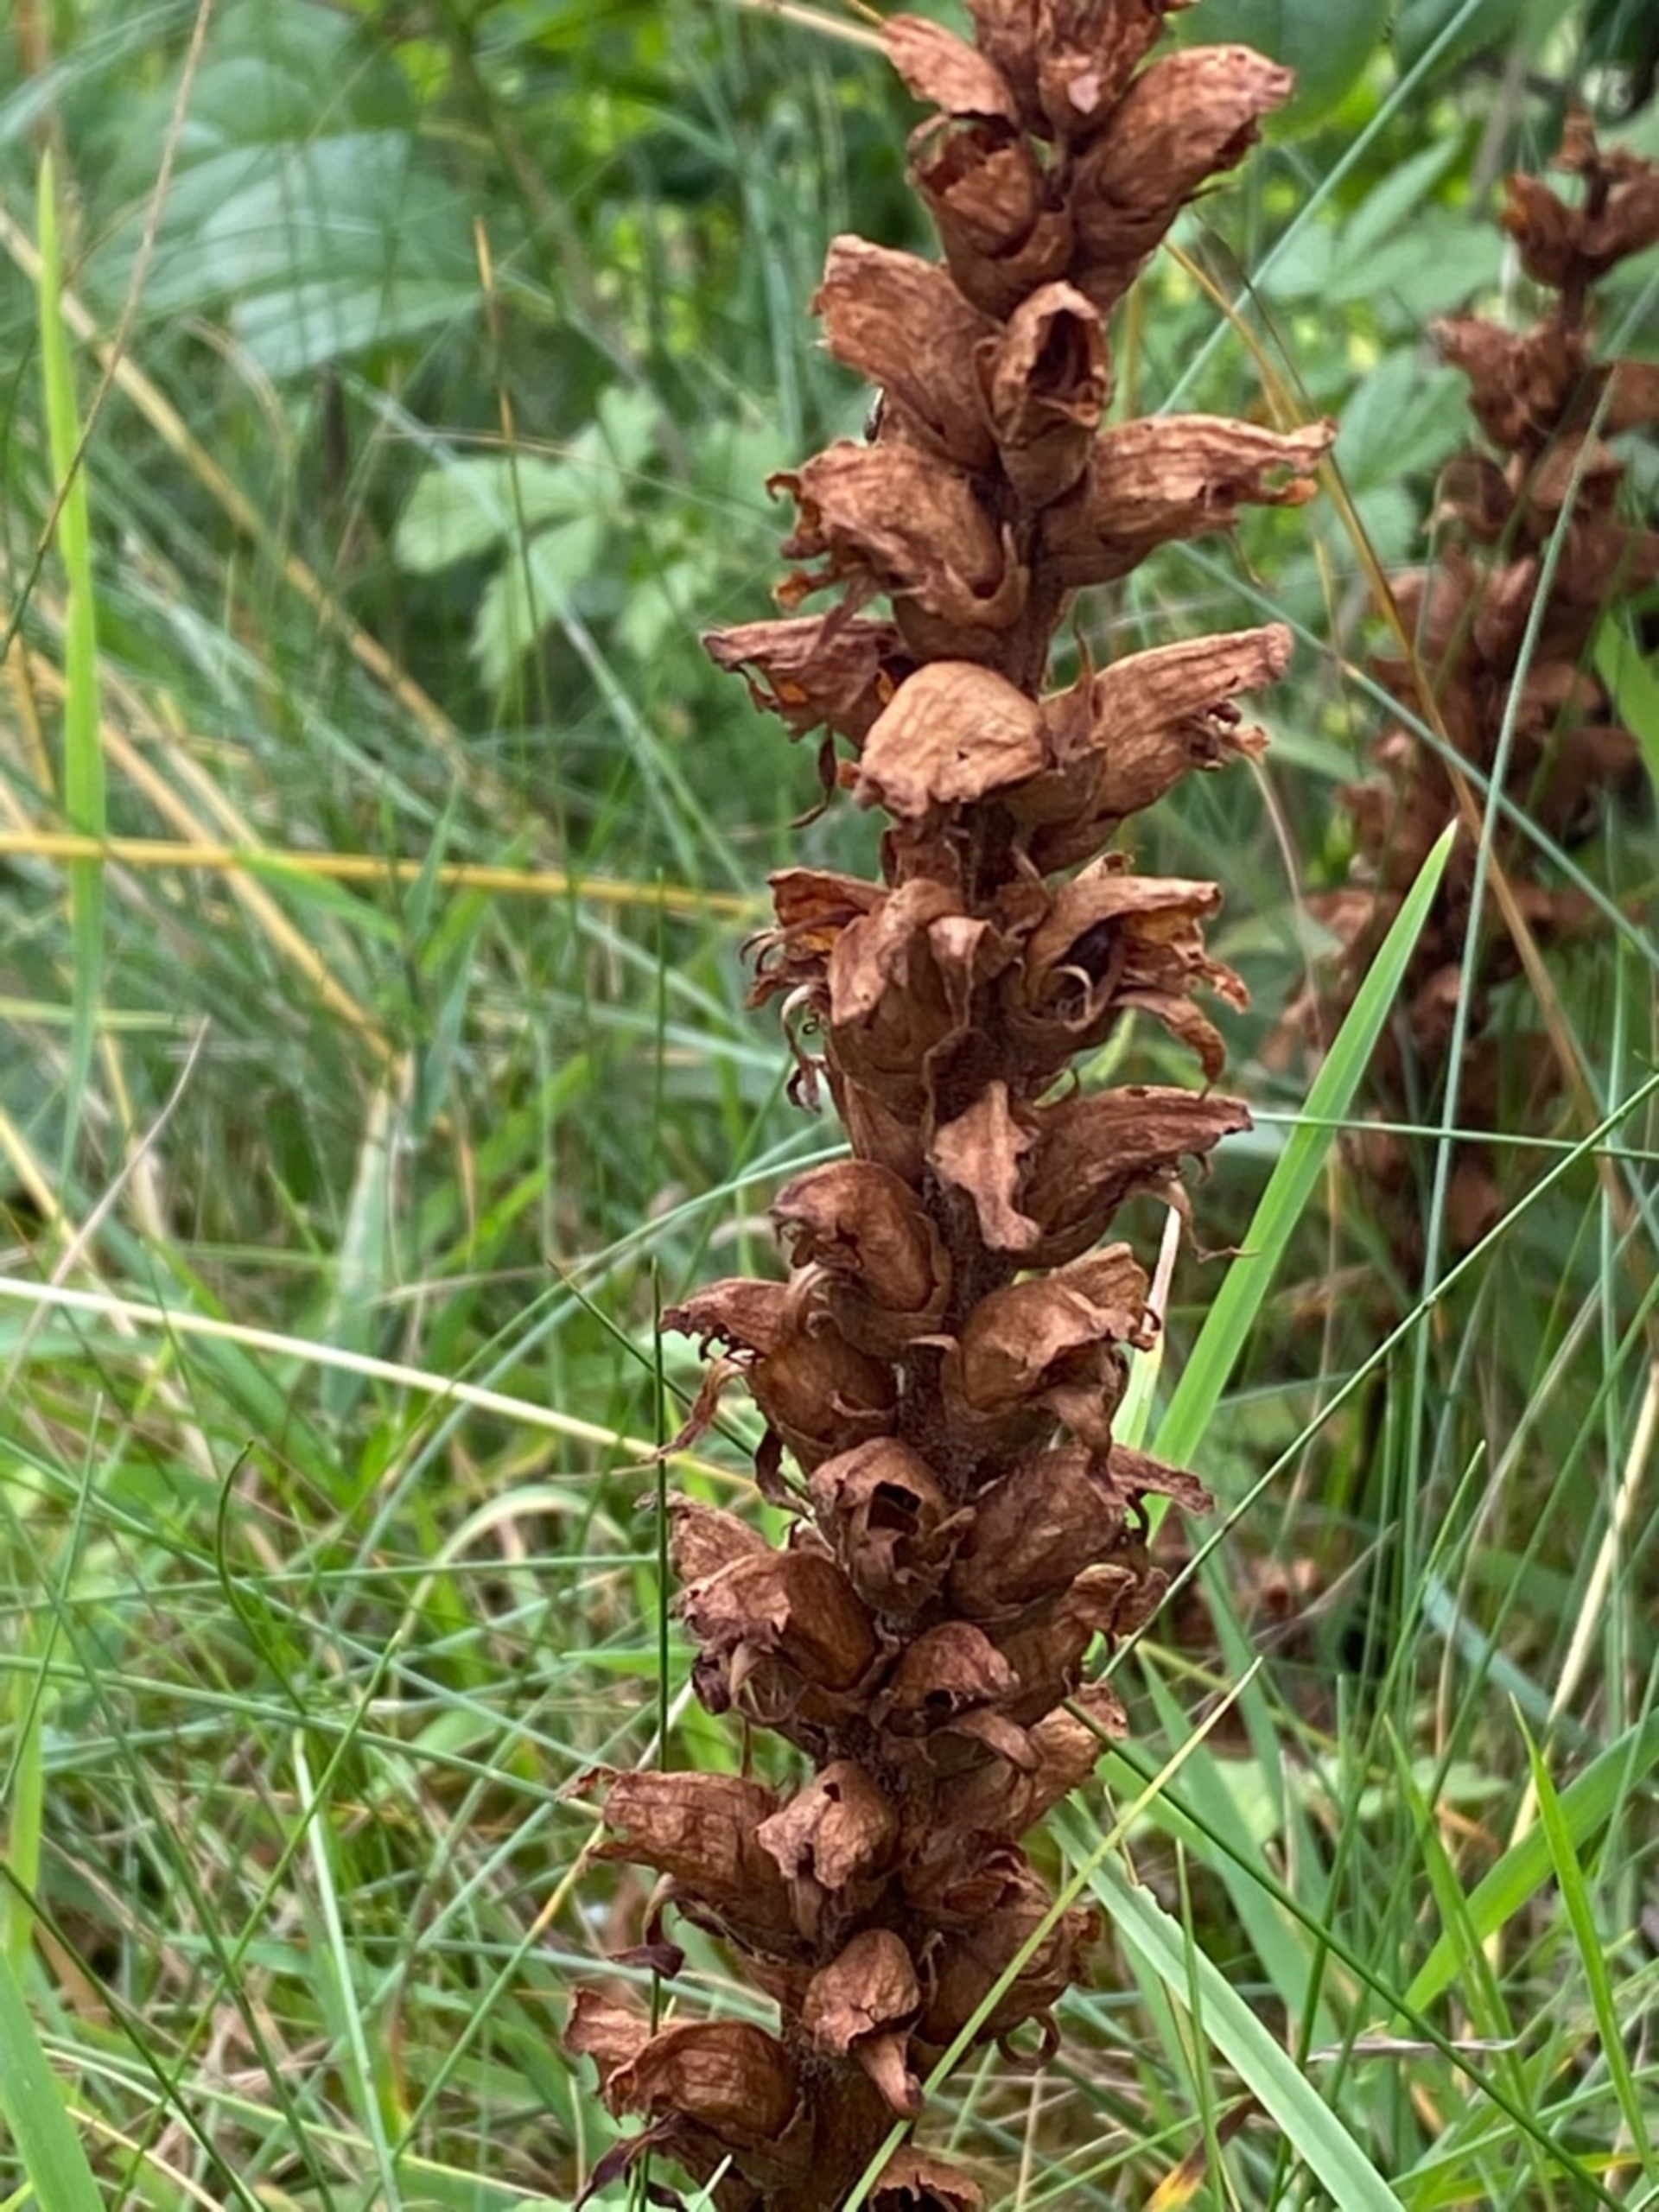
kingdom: Plantae
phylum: Tracheophyta
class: Magnoliopsida
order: Lamiales
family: Orobanchaceae
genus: Orobanche
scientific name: Orobanche
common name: Gyvelkvælerslægten
